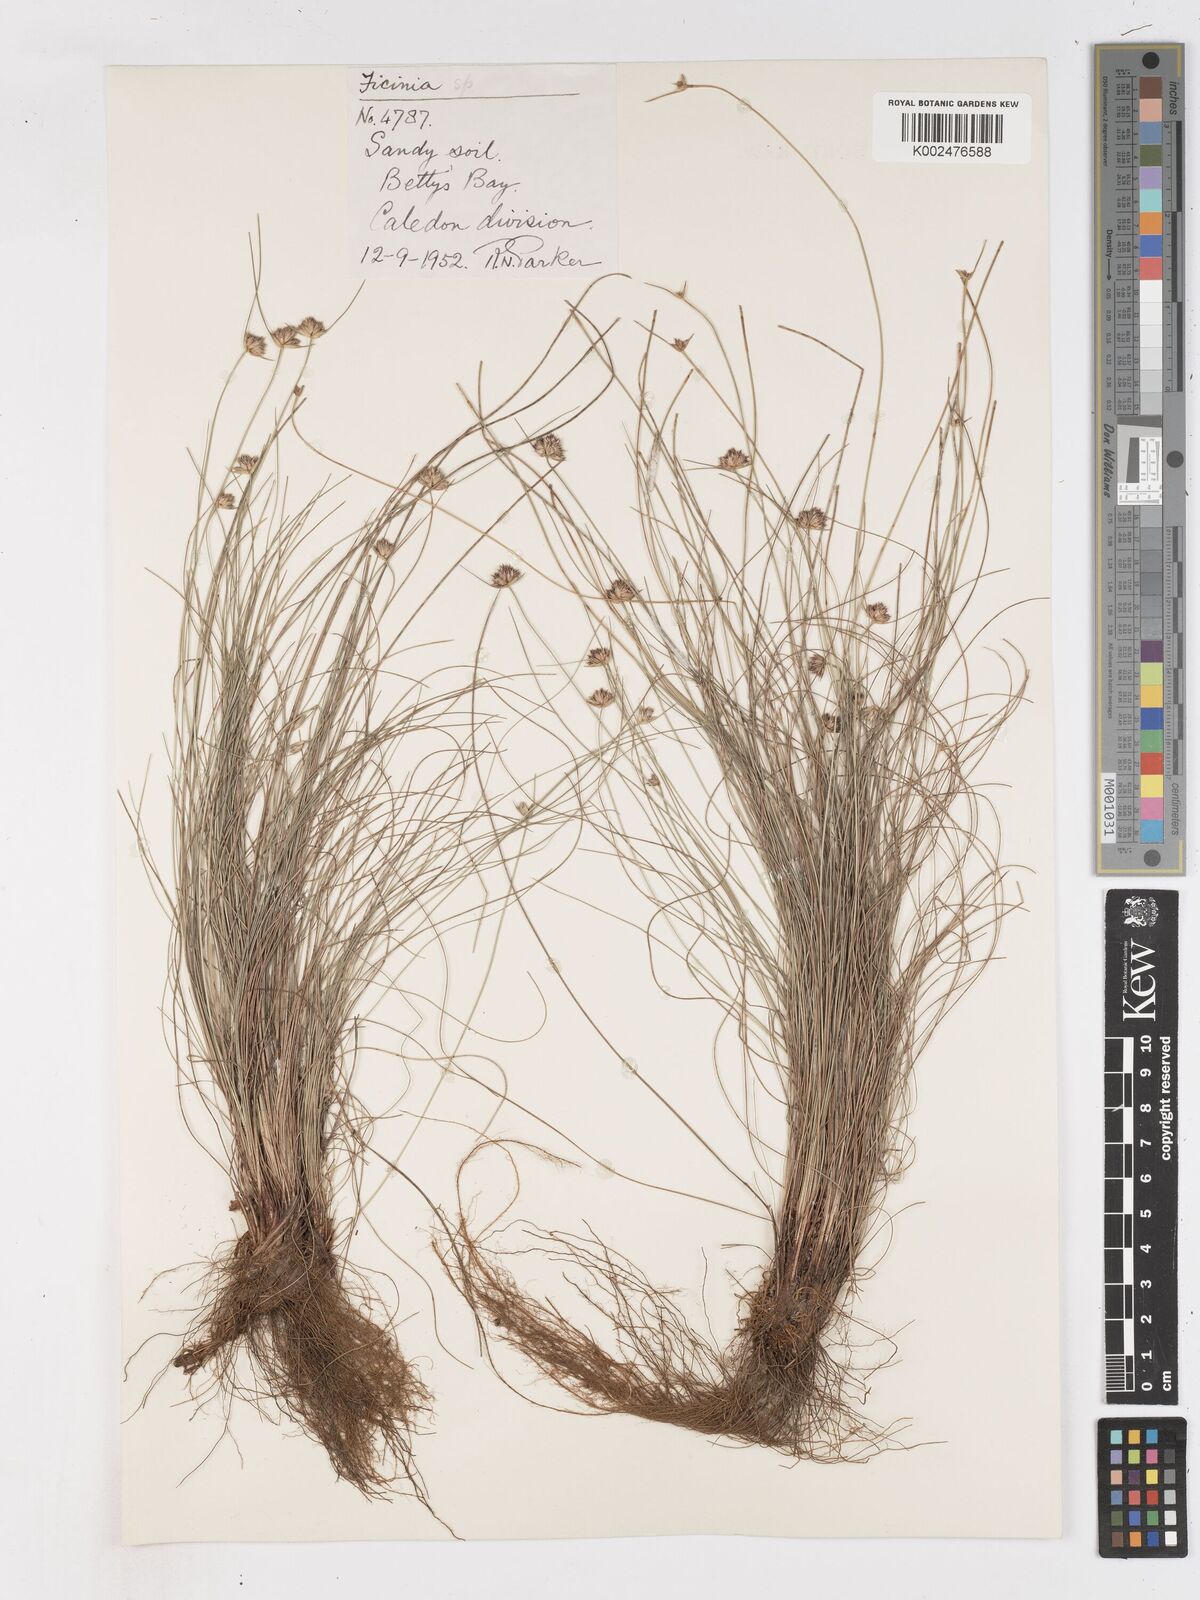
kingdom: Plantae
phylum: Tracheophyta
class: Liliopsida
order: Poales
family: Cyperaceae
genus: Ficinia
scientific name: Ficinia
